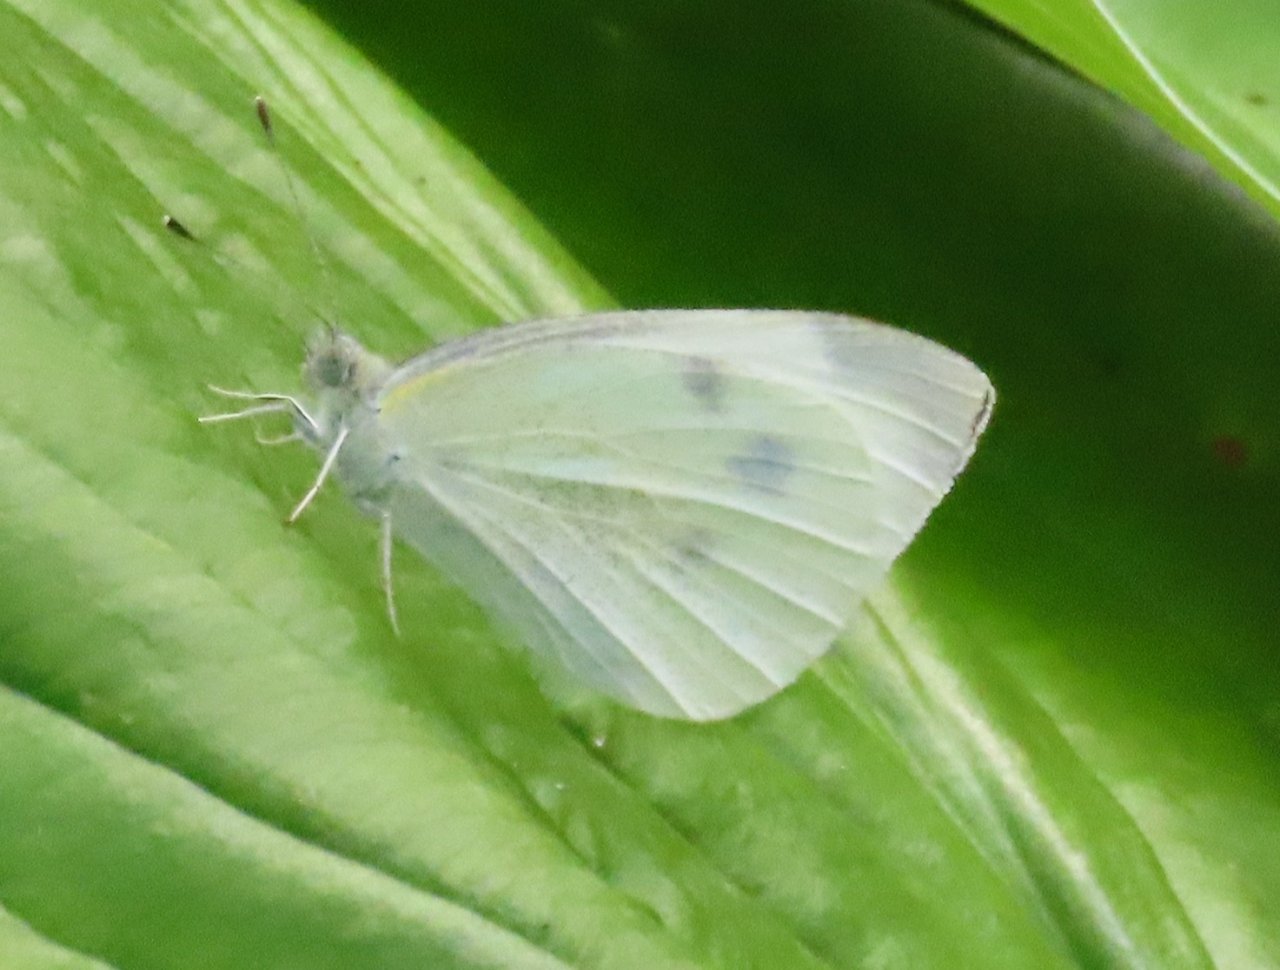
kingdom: Animalia
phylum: Arthropoda
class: Insecta
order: Lepidoptera
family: Pieridae
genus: Pieris
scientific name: Pieris rapae
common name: Cabbage White
